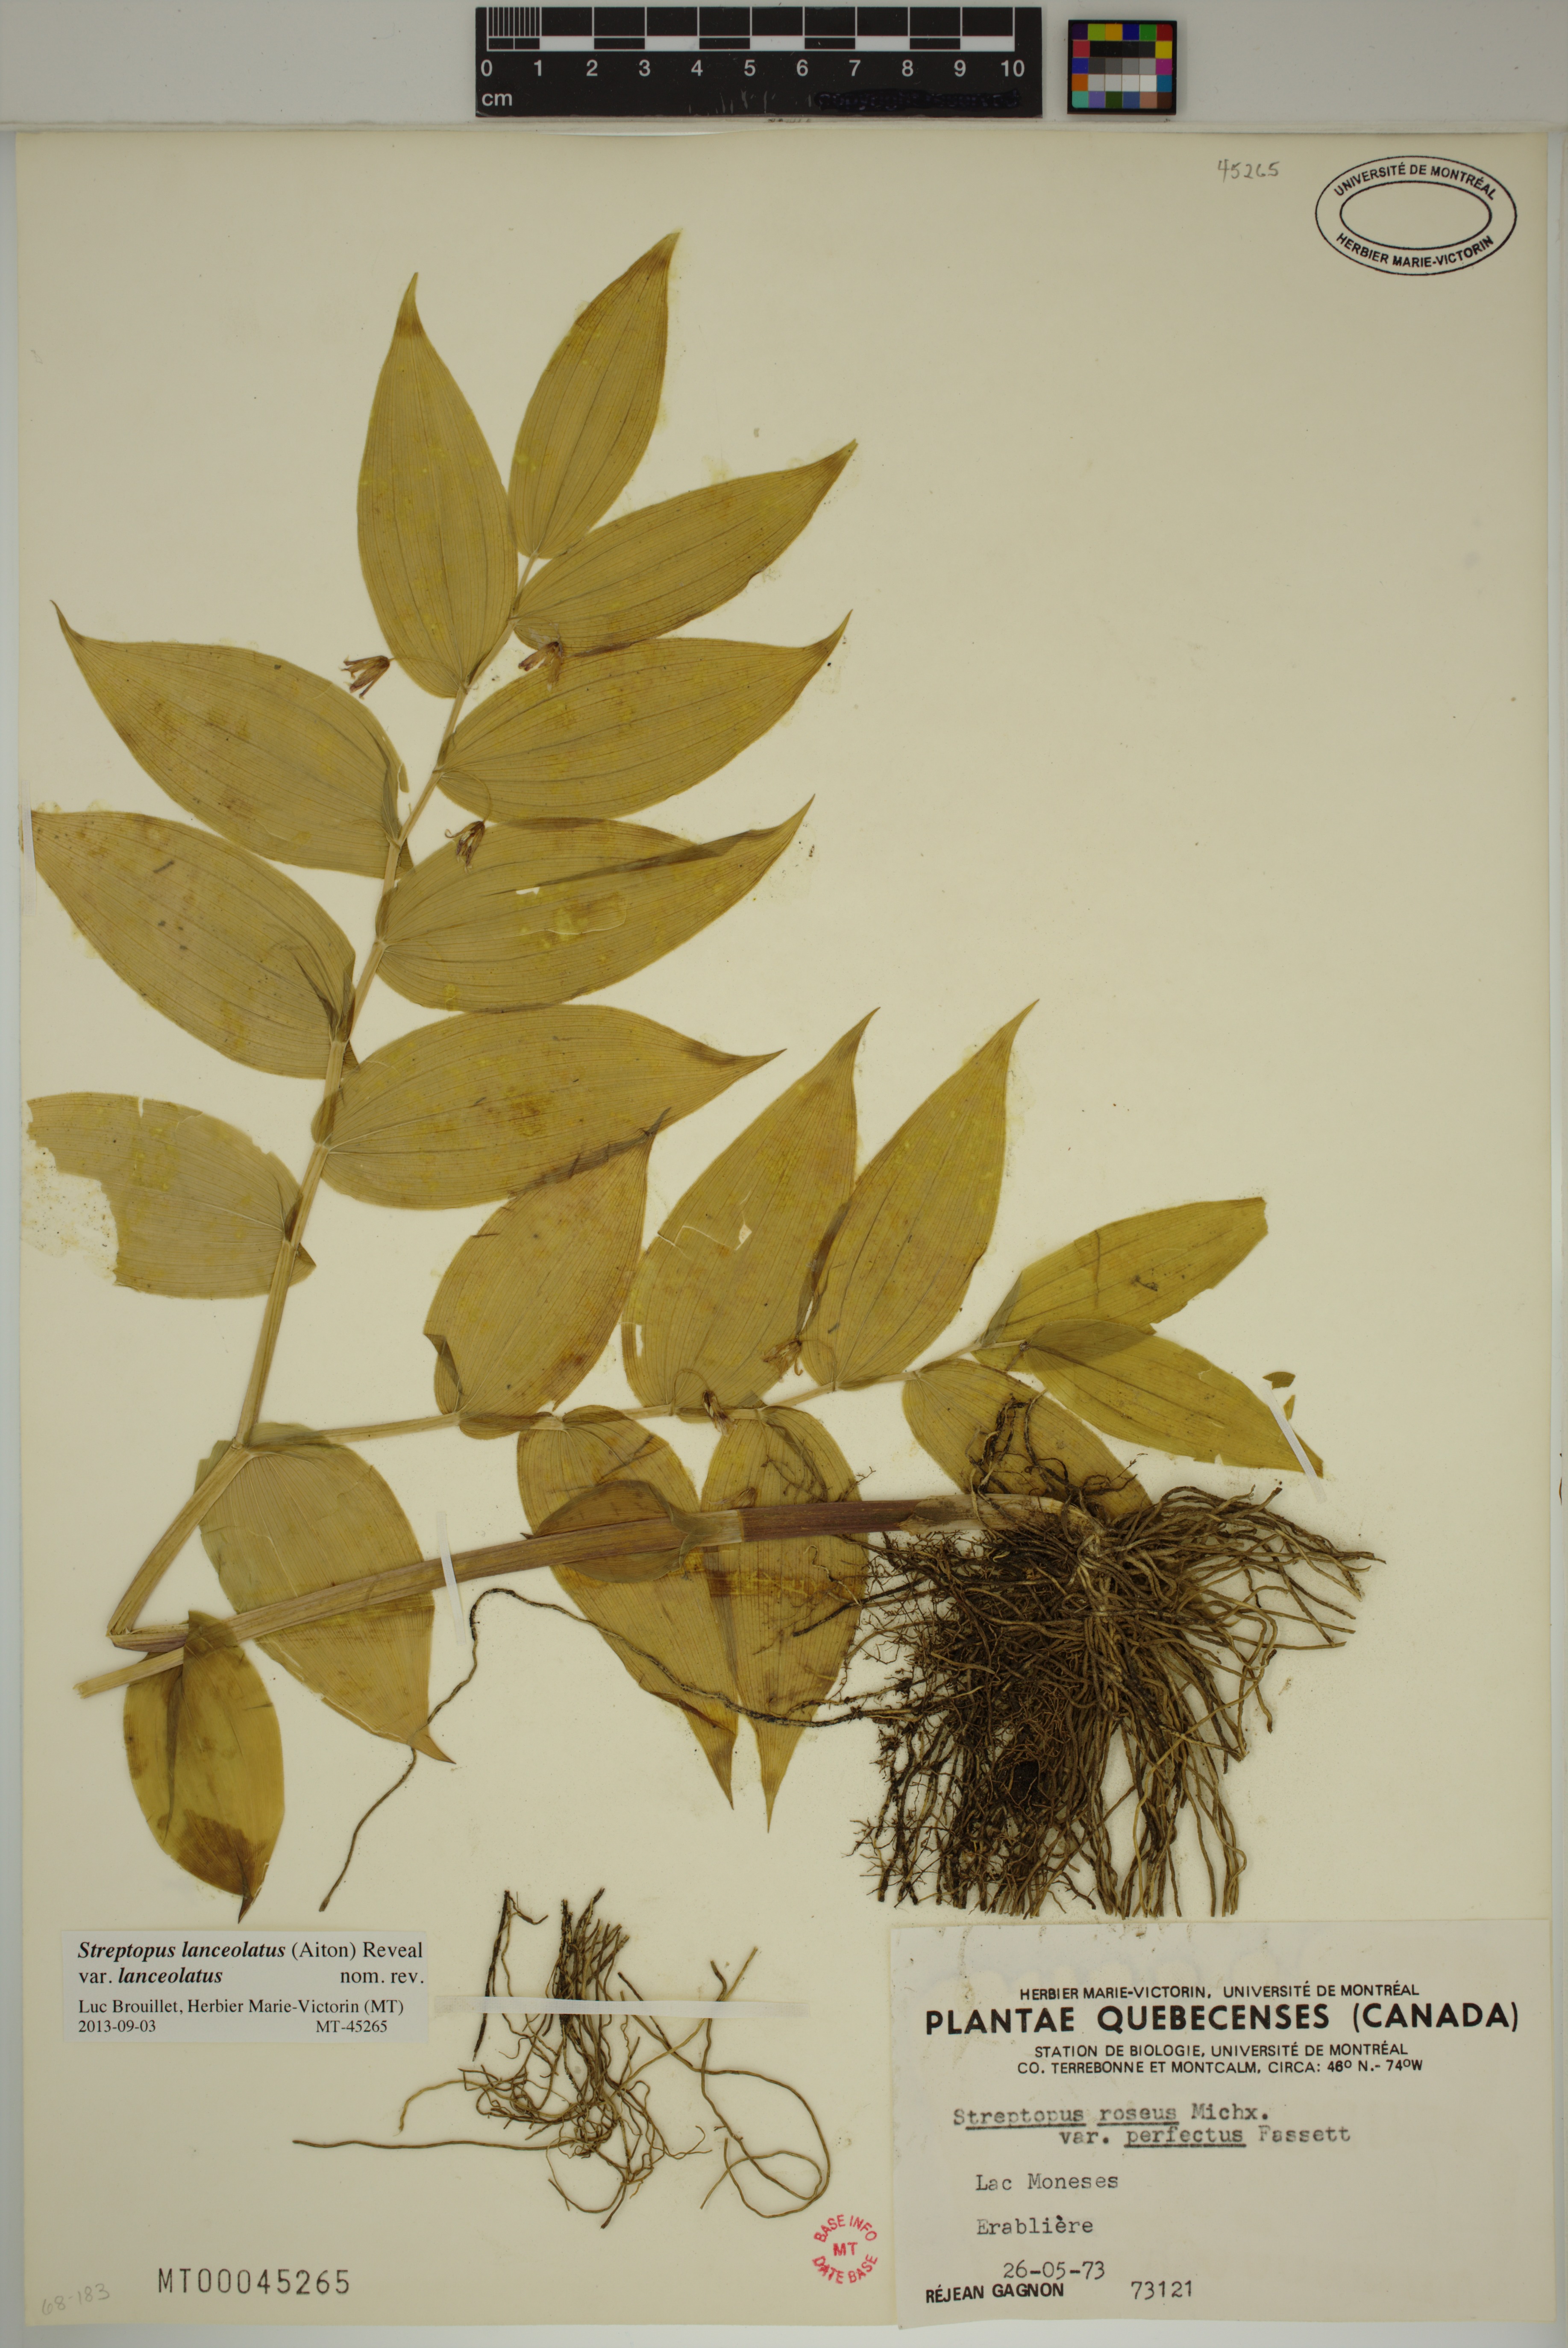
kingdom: Plantae
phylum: Tracheophyta
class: Liliopsida
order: Liliales
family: Liliaceae
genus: Streptopus
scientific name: Streptopus lanceolatus
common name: Rose mandarin
